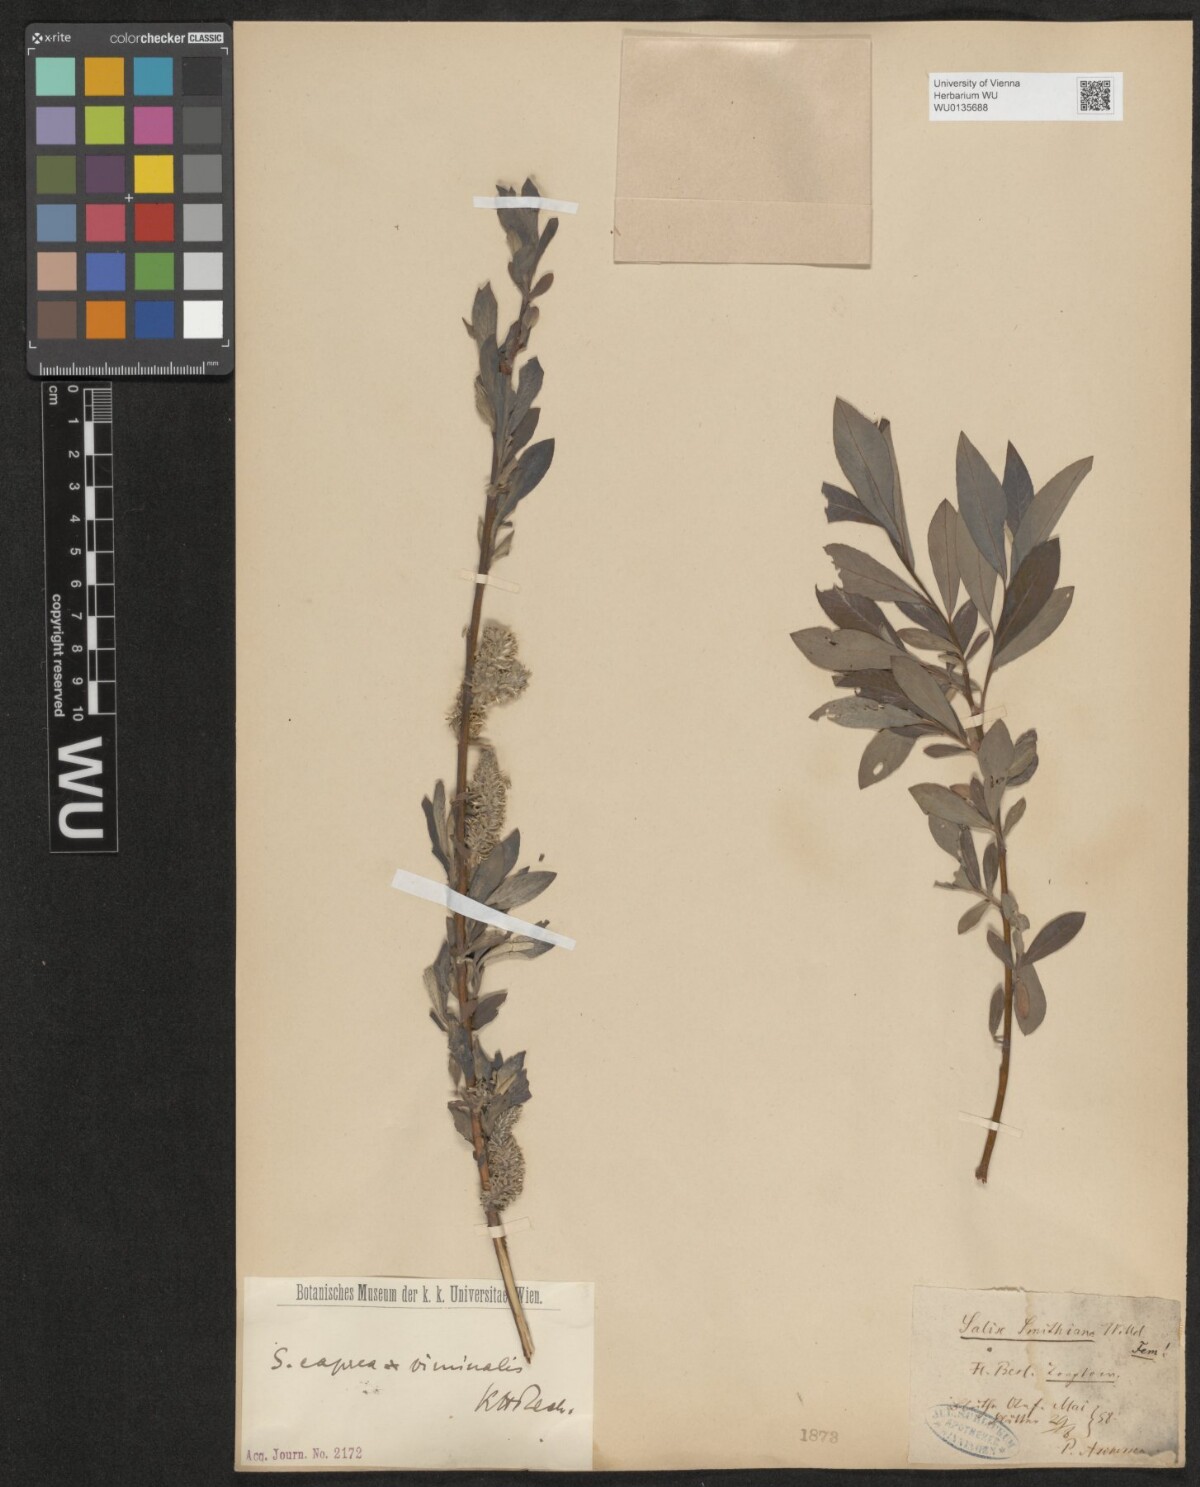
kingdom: Plantae
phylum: Tracheophyta
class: Magnoliopsida
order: Malpighiales
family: Salicaceae
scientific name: Salicaceae
